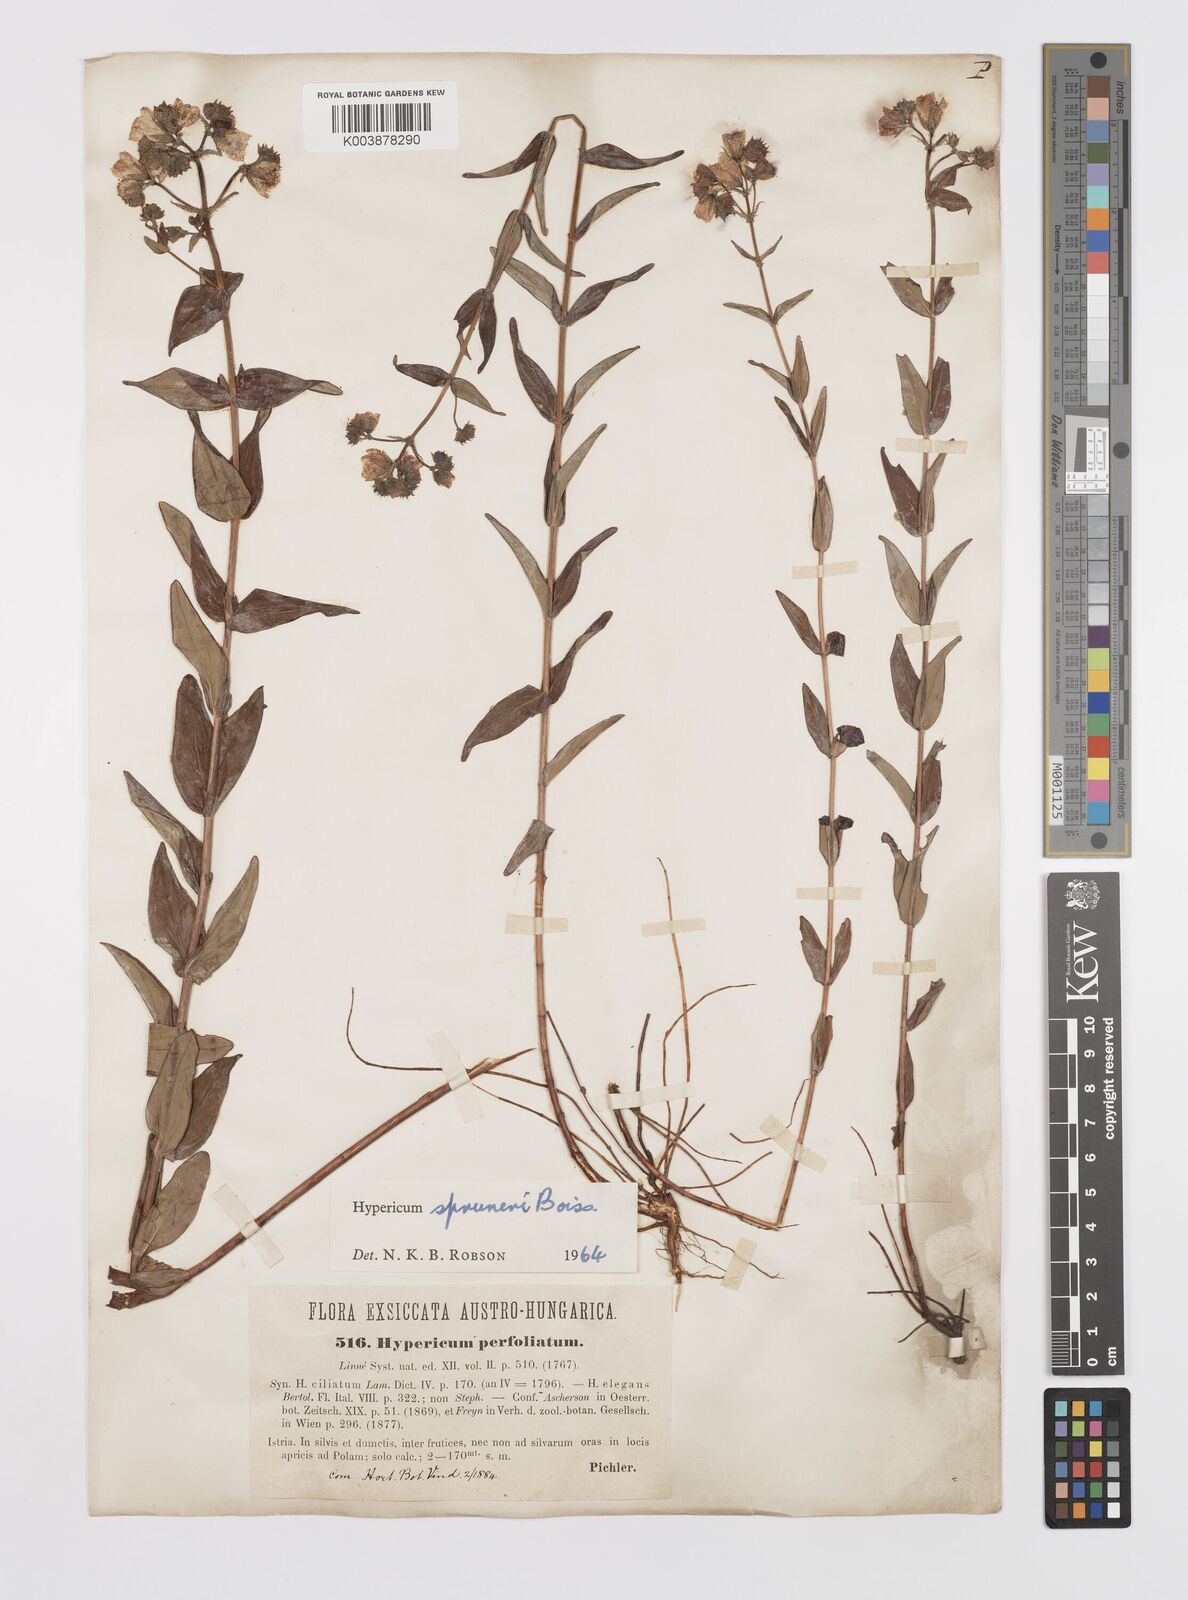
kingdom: Plantae
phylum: Tracheophyta
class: Magnoliopsida
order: Malpighiales
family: Hypericaceae
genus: Hypericum
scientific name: Hypericum spruneri
